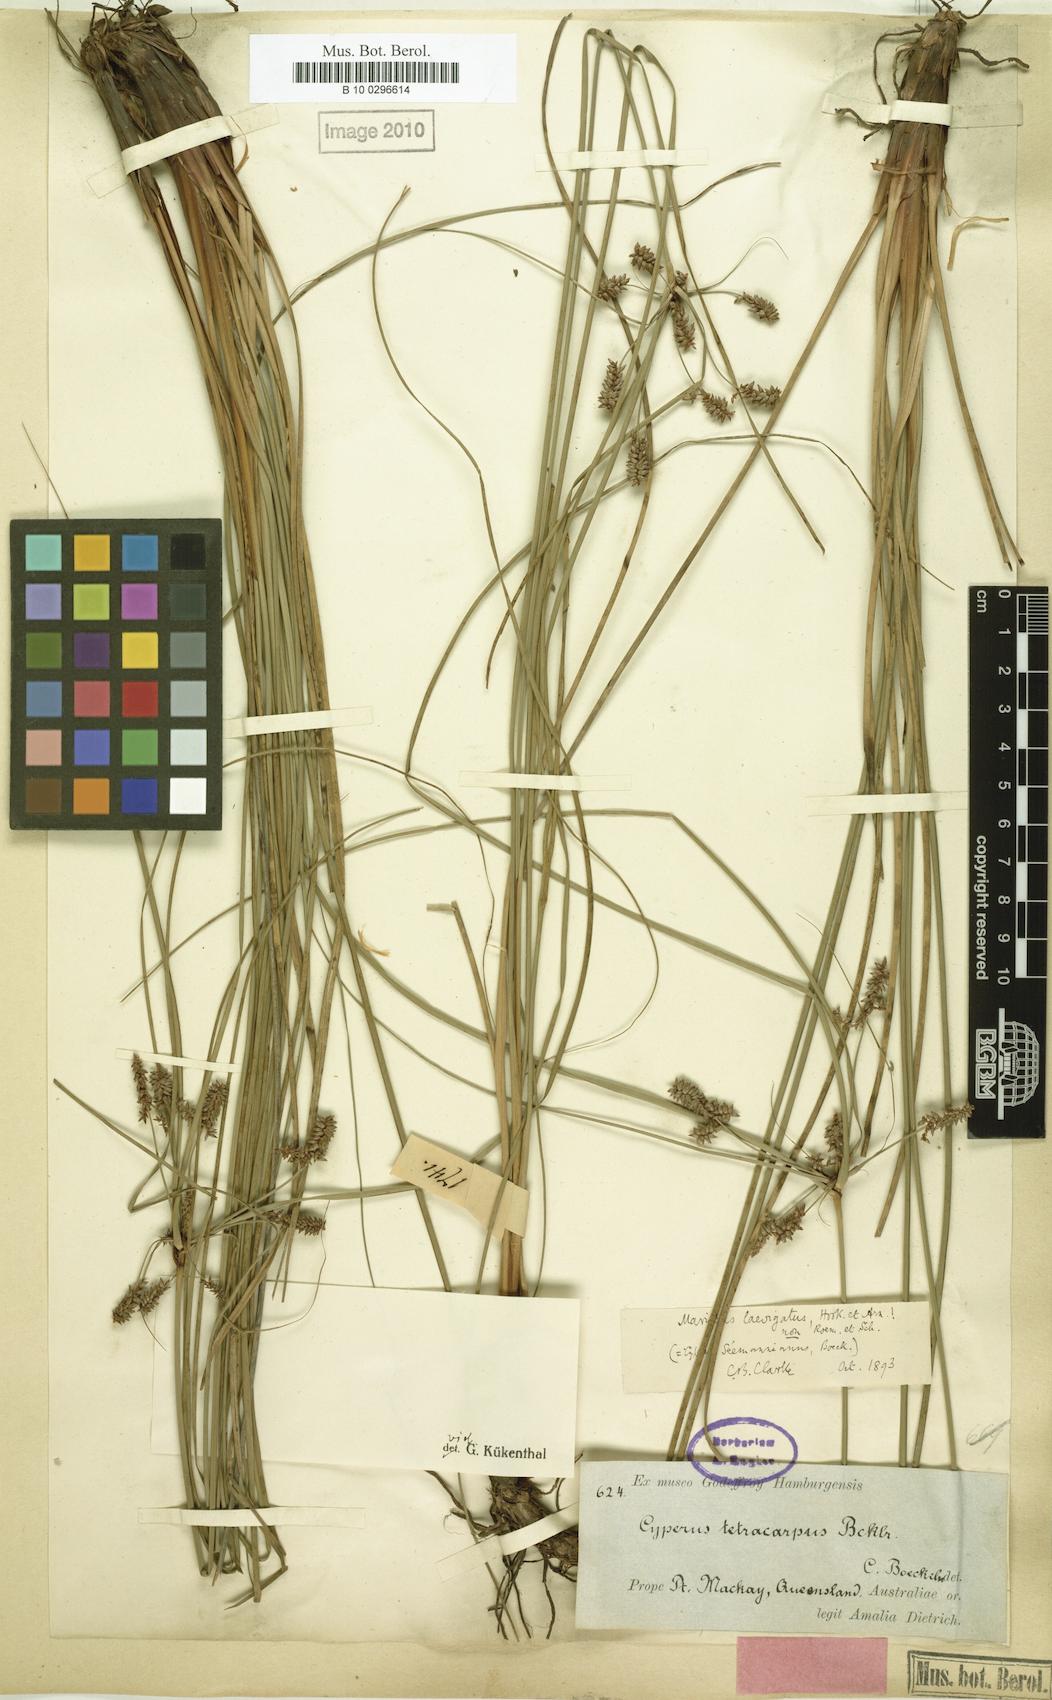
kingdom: Plantae
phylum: Tracheophyta
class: Liliopsida
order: Poales
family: Cyperaceae
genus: Cyperus
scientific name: Cyperus tetracarpus
